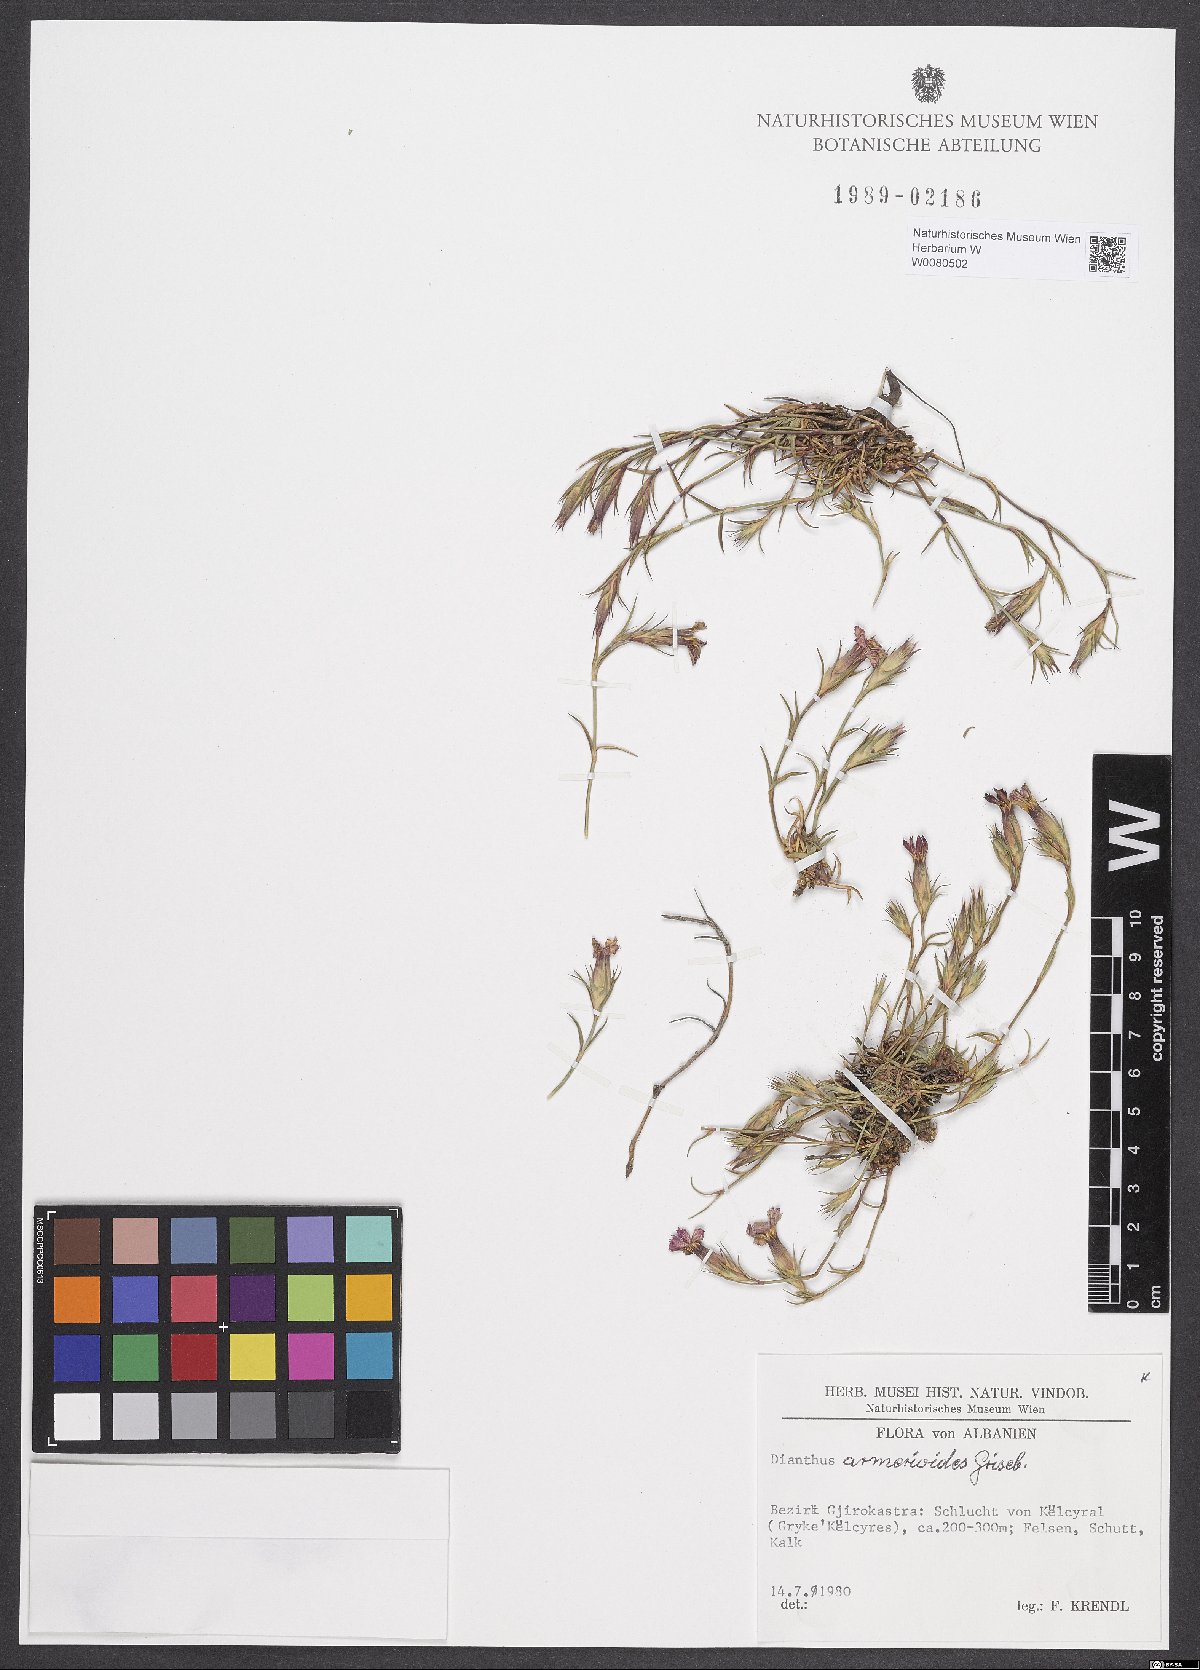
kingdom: Plantae
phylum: Tracheophyta
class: Magnoliopsida
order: Caryophyllales
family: Caryophyllaceae
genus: Dianthus
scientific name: Dianthus armerioides
